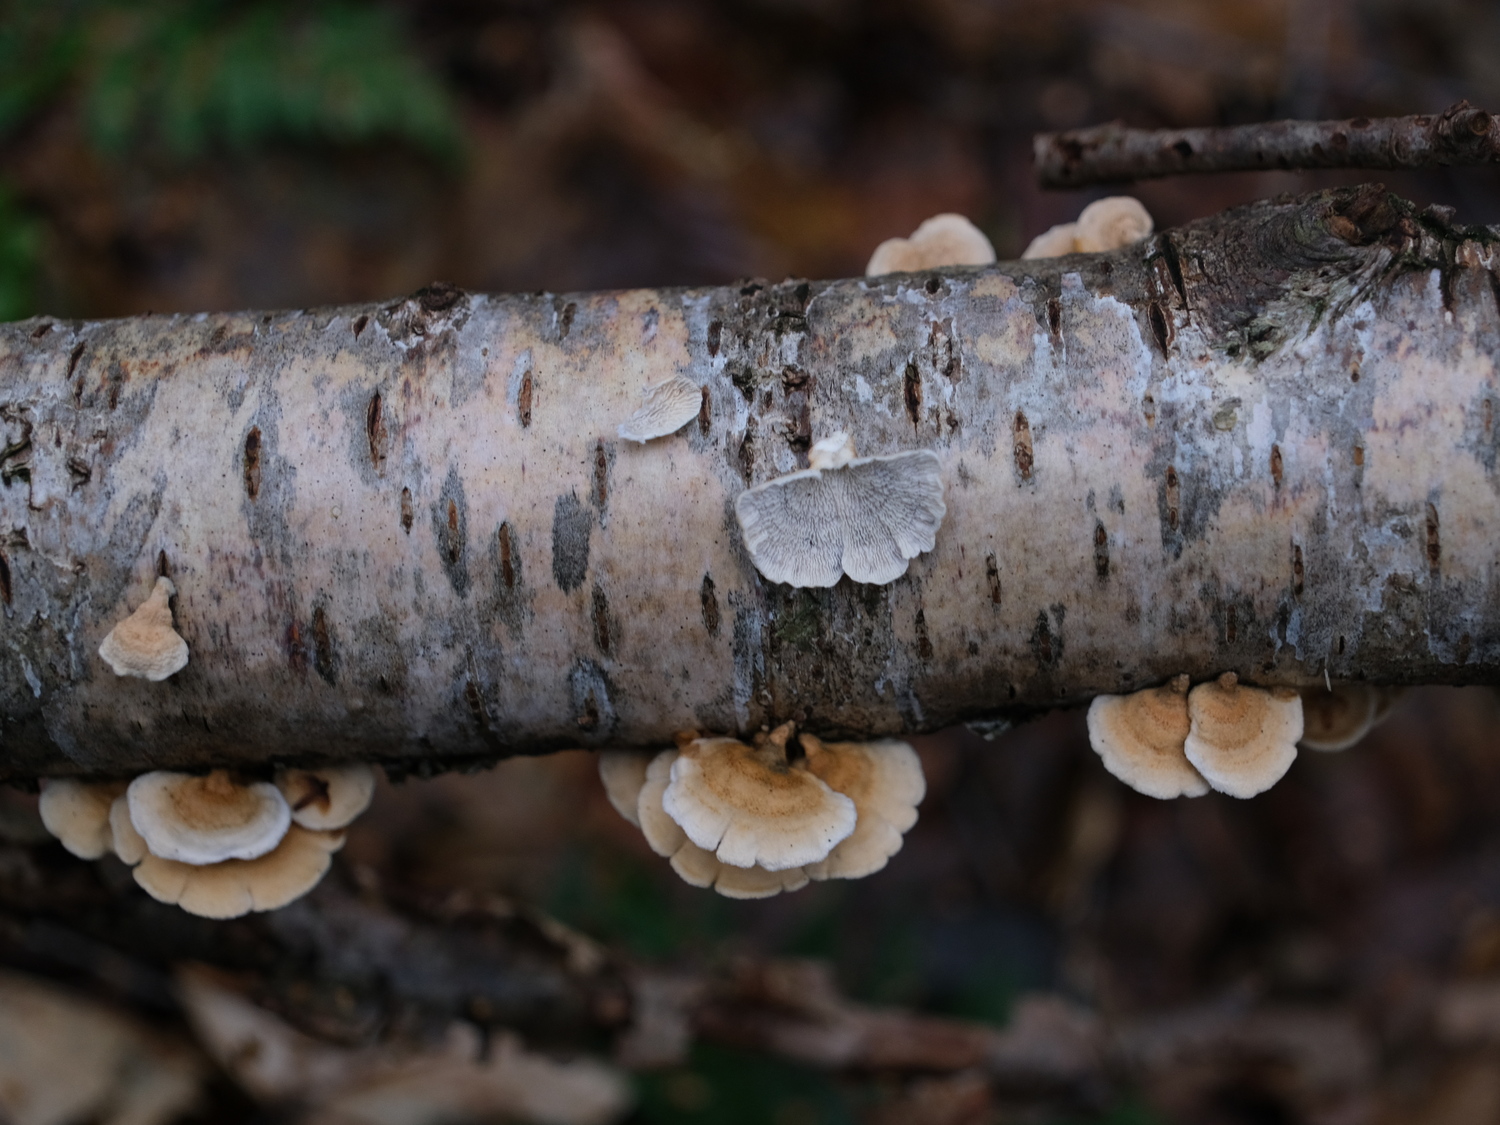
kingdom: Fungi
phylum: Basidiomycota
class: Agaricomycetes
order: Amylocorticiales
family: Amylocorticiaceae
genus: Plicaturopsis
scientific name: Plicaturopsis crispa
